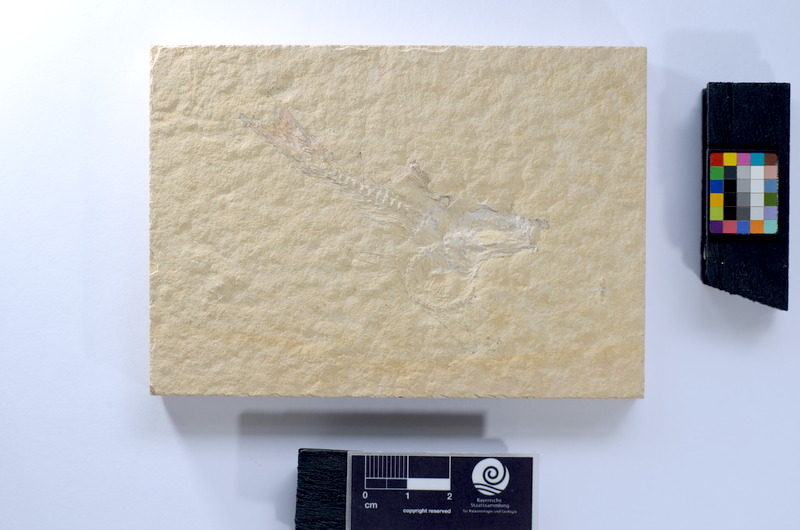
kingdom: Animalia
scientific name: Animalia
